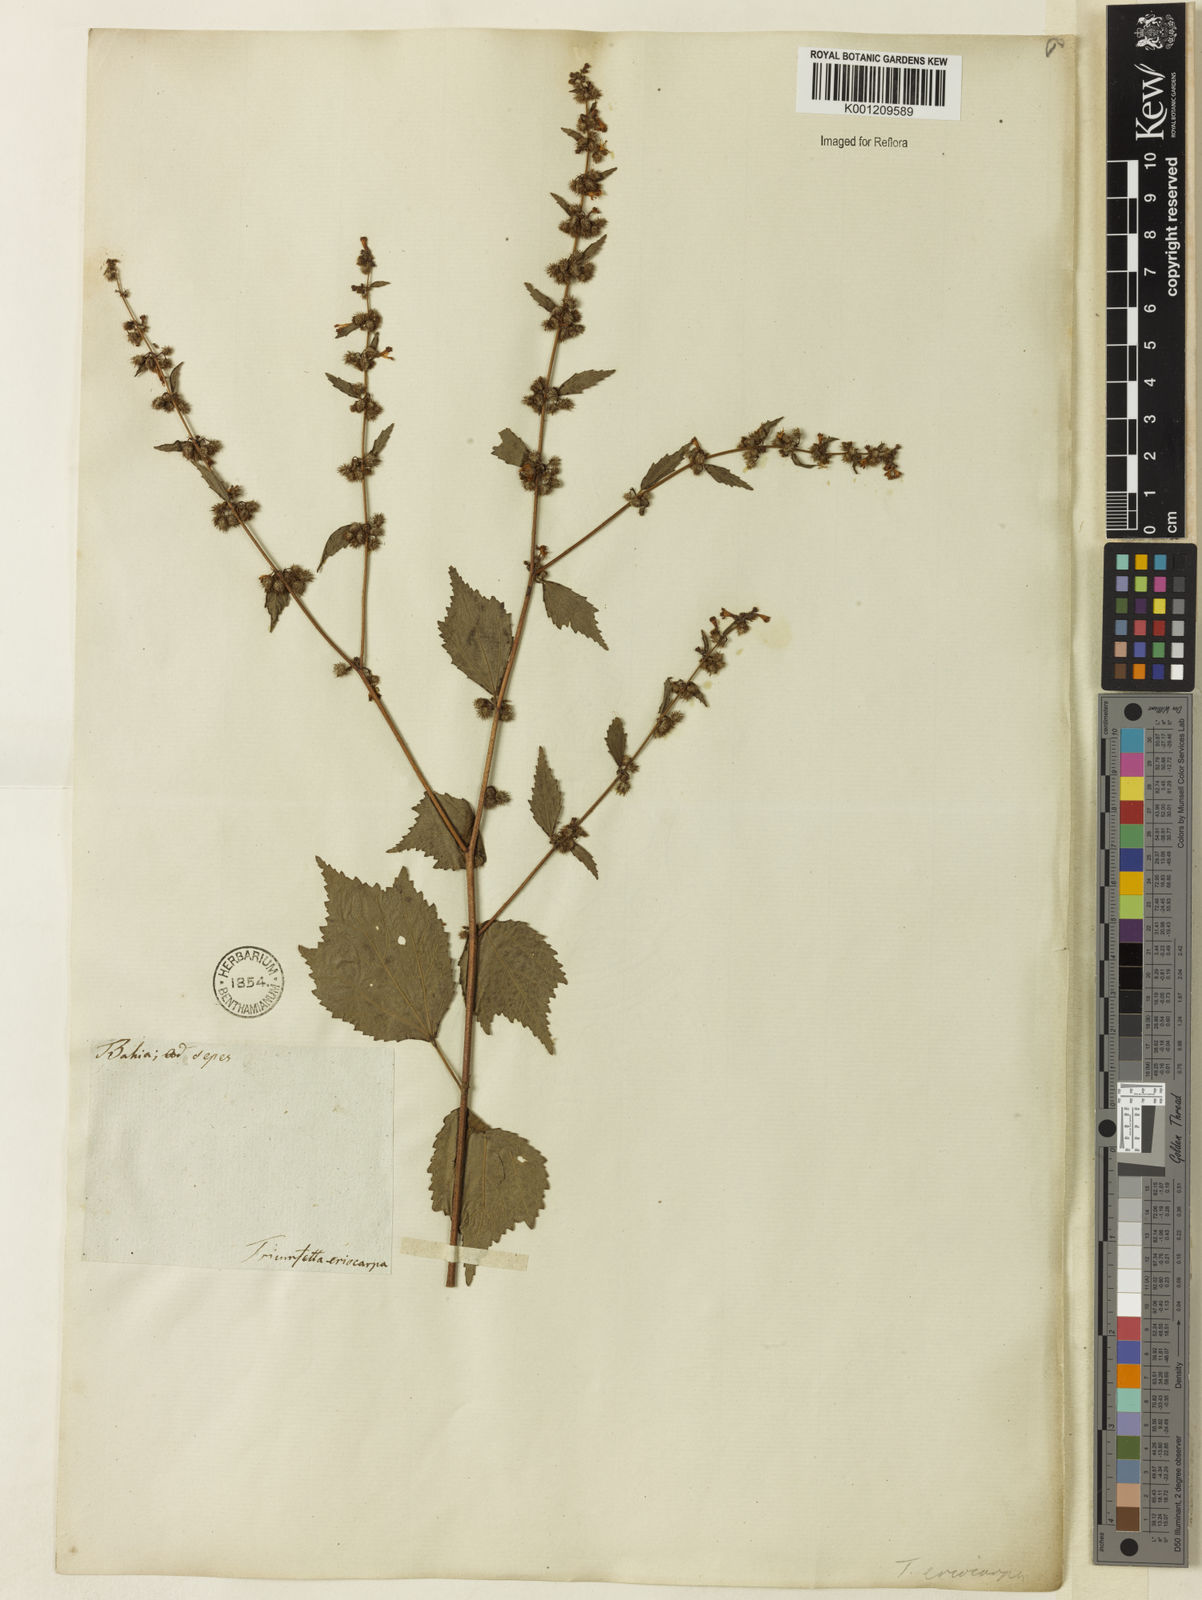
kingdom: Plantae
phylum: Tracheophyta
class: Magnoliopsida
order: Malvales
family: Malvaceae
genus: Triumfetta
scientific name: Triumfetta rhomboidea
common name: Diamond burbark
